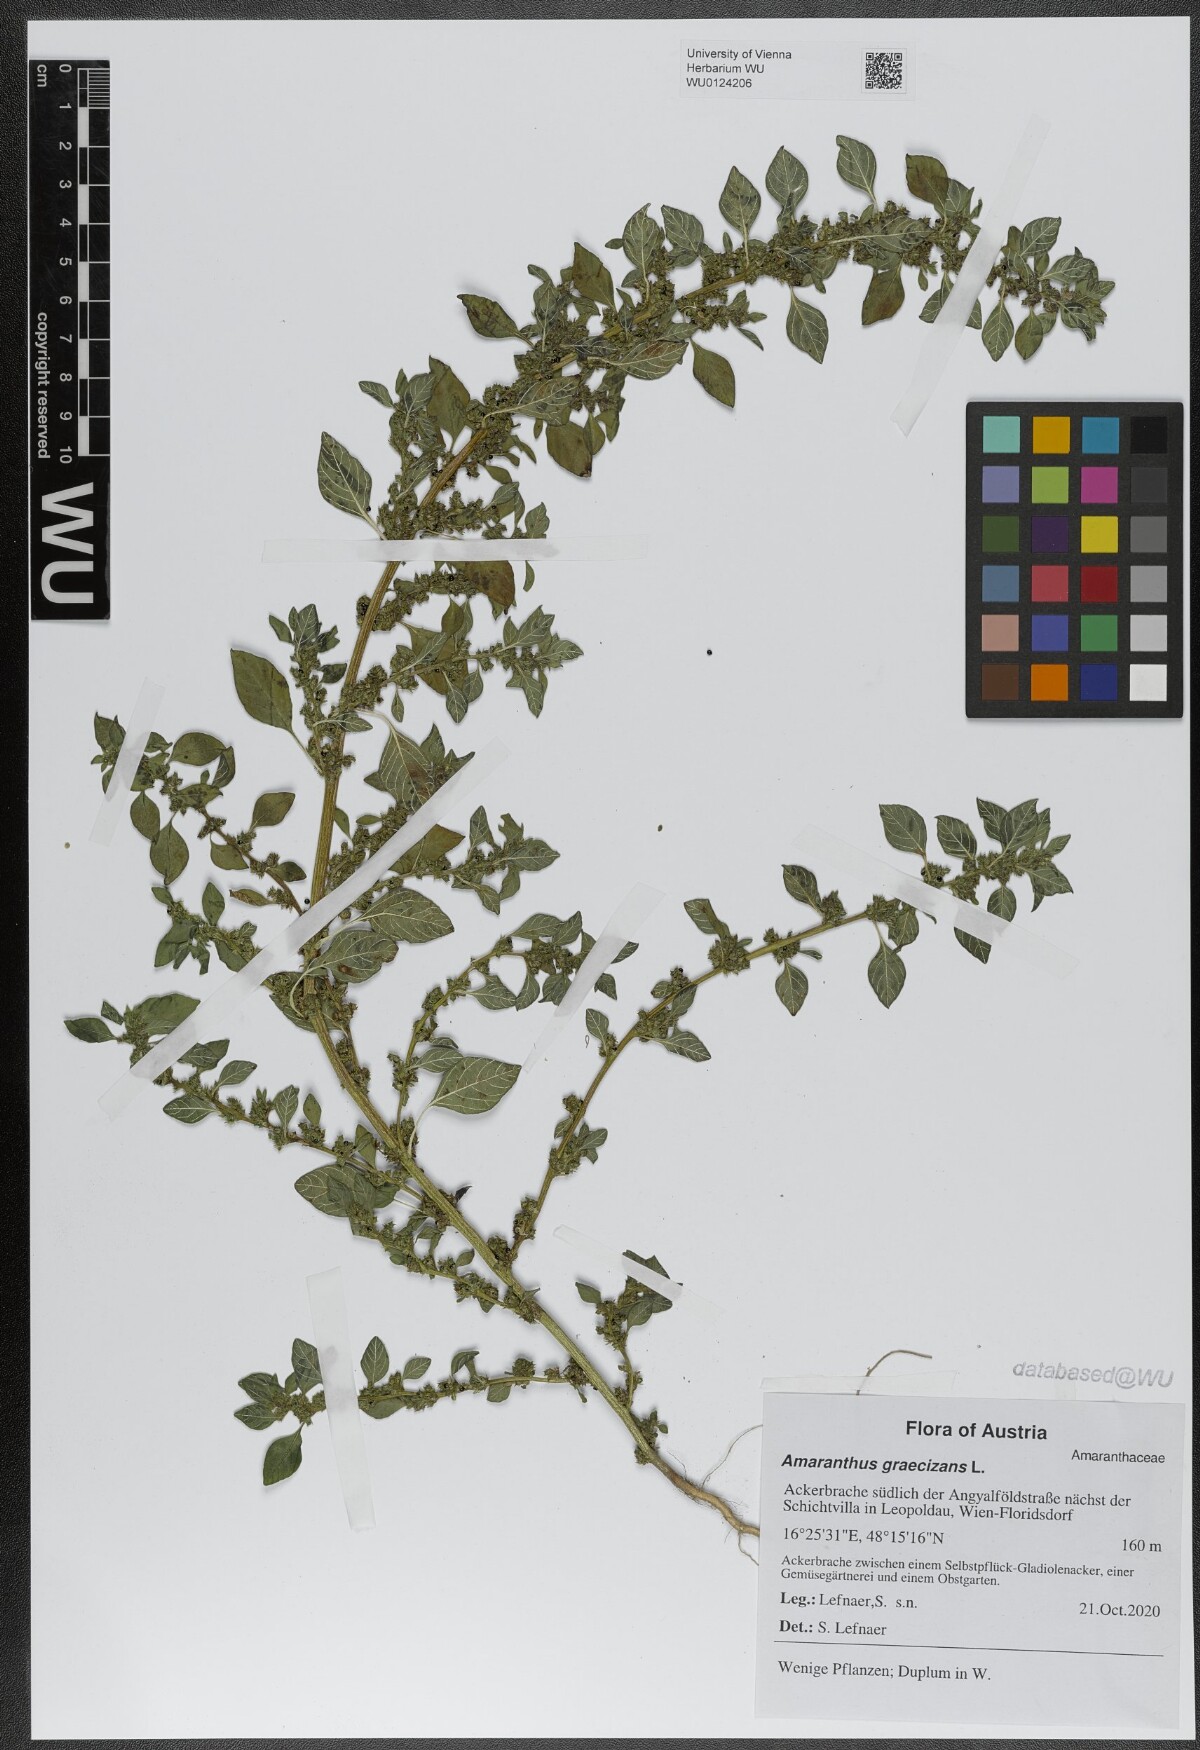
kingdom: Plantae
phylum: Tracheophyta
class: Magnoliopsida
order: Caryophyllales
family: Amaranthaceae
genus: Amaranthus
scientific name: Amaranthus graecizans
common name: Mediterranean amaranth
